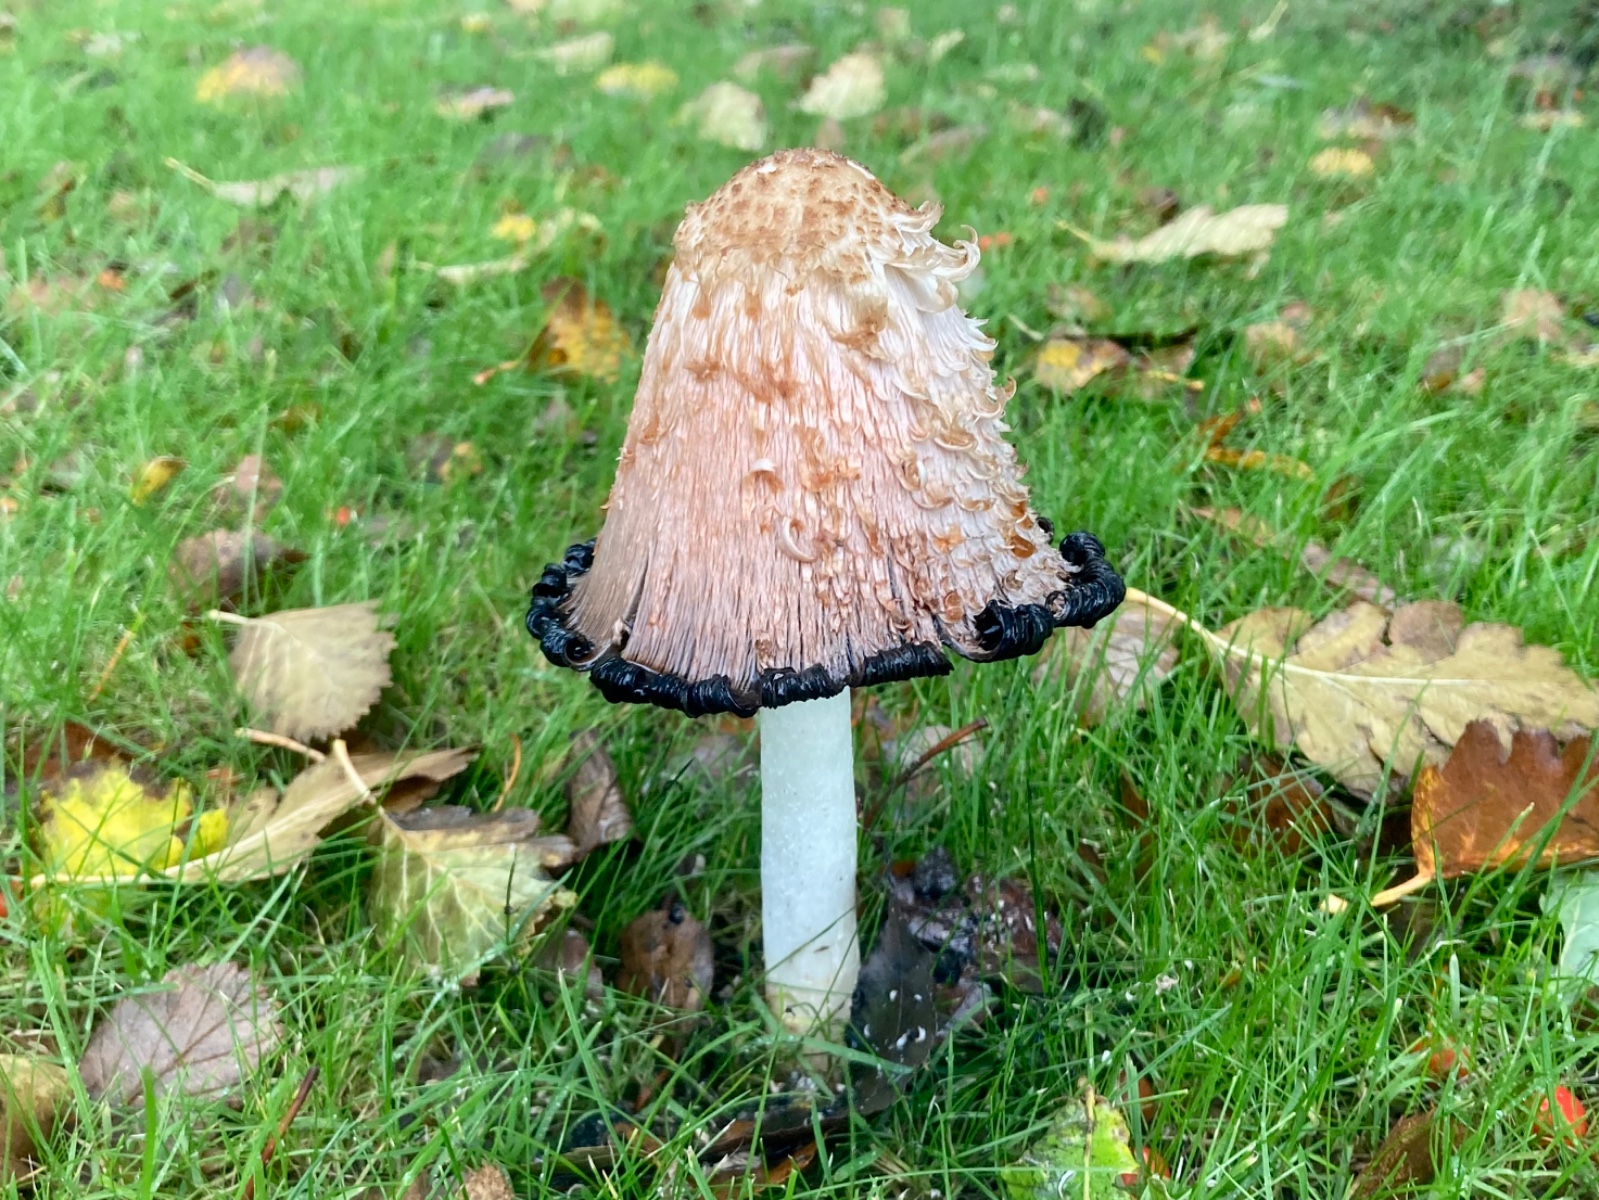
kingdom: Fungi
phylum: Basidiomycota
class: Agaricomycetes
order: Agaricales
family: Agaricaceae
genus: Coprinus
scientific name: Coprinus comatus
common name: stor parykhat
